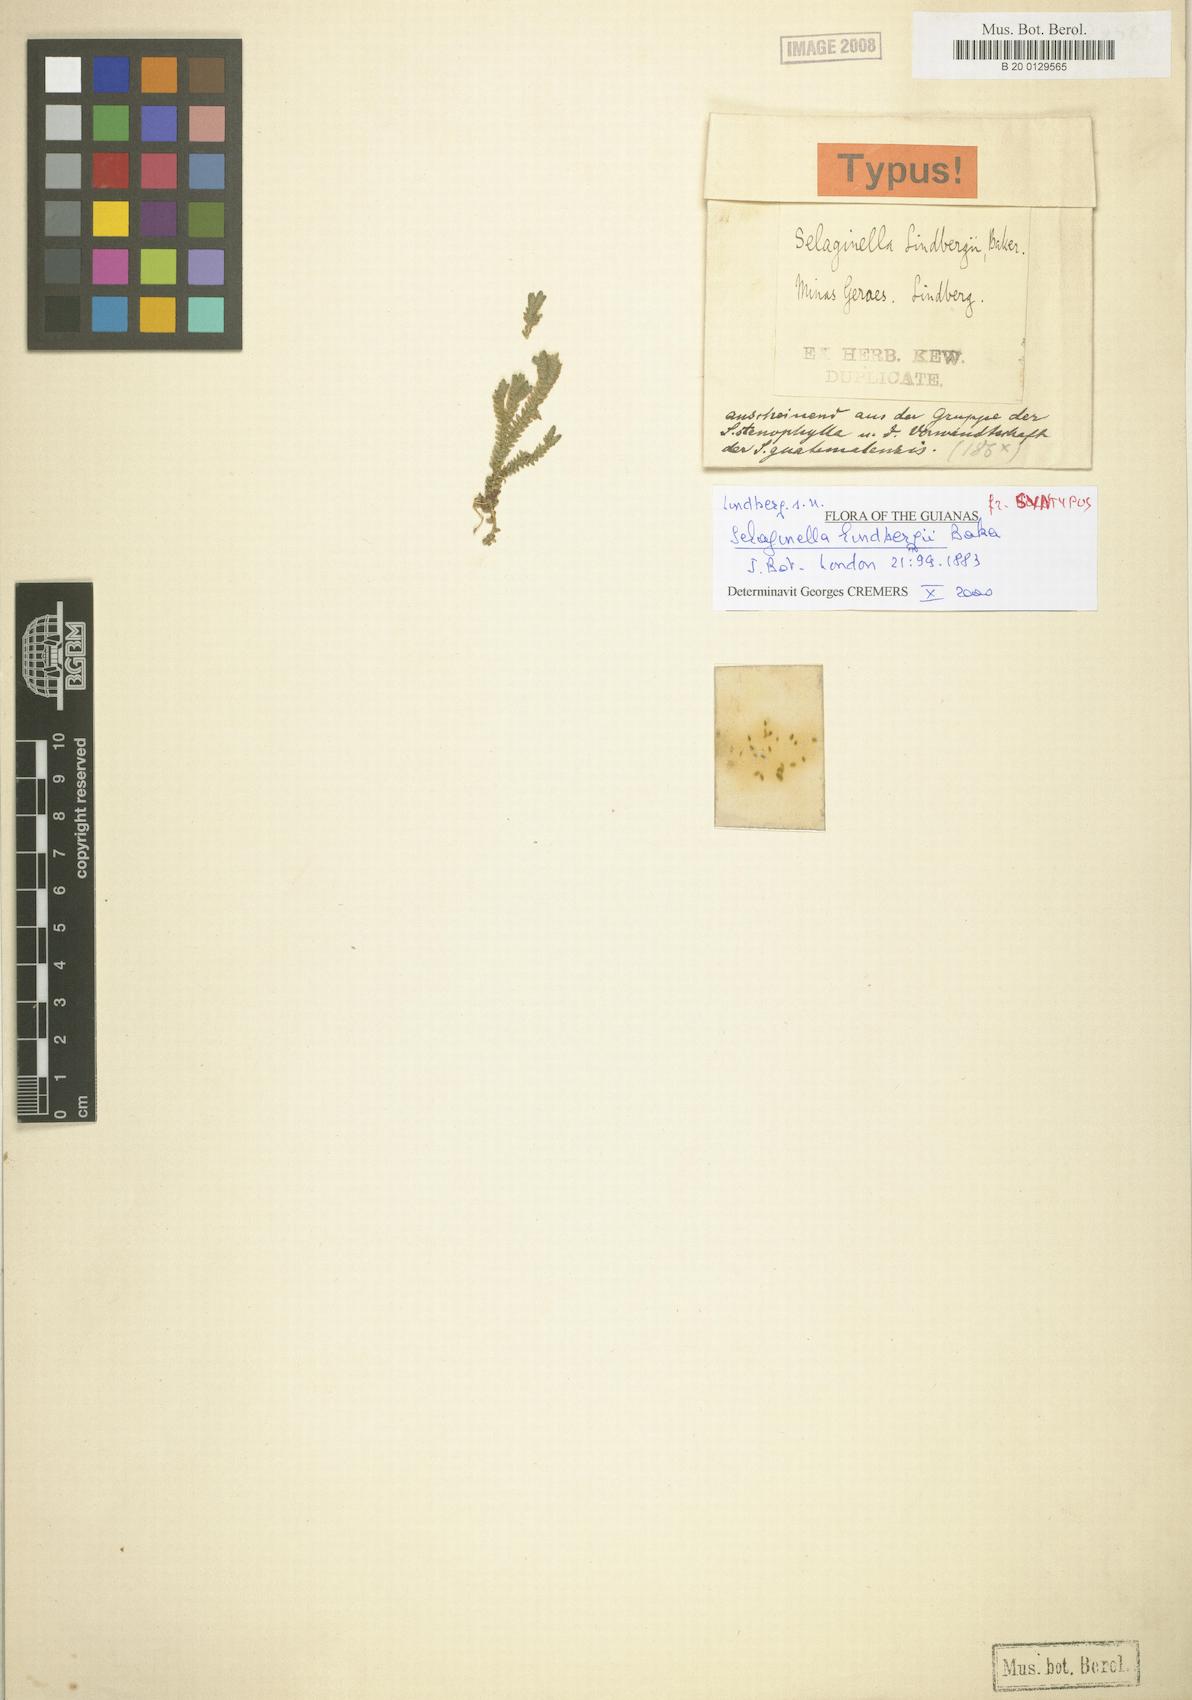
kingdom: Plantae
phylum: Tracheophyta
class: Lycopodiopsida
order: Selaginellales
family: Selaginellaceae
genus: Selaginella
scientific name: Selaginella macrostachya
